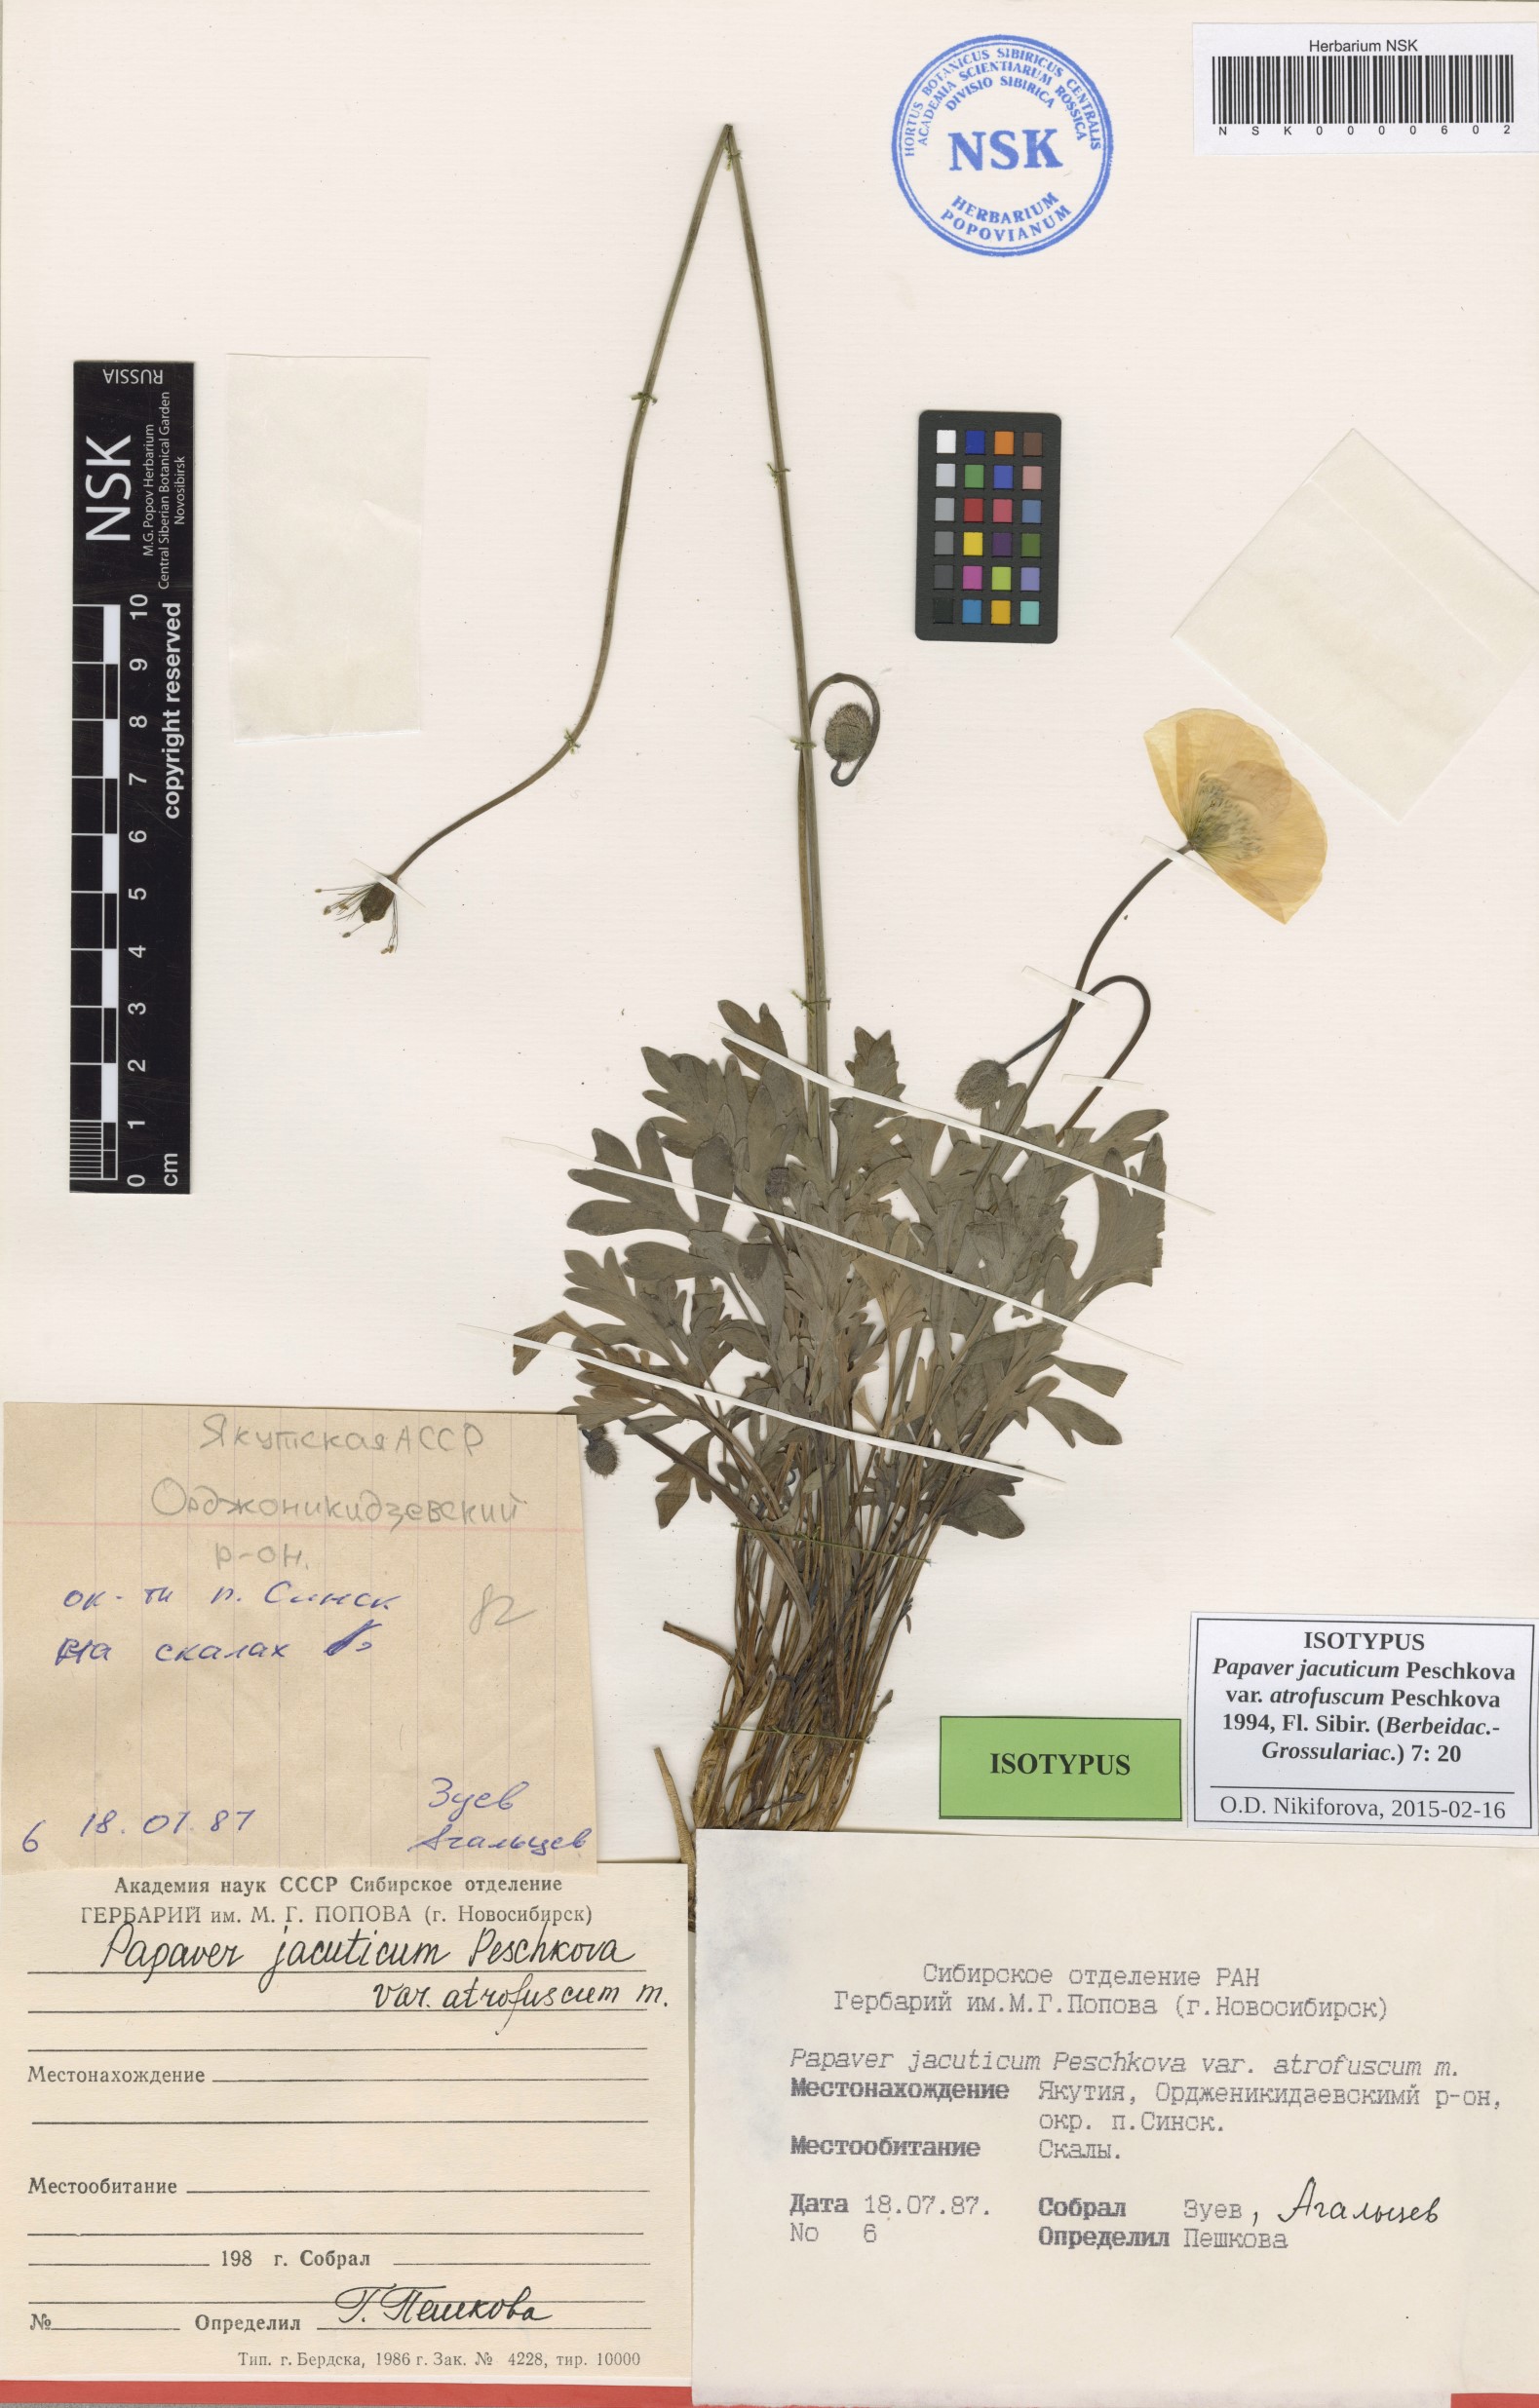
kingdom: Plantae
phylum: Tracheophyta
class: Magnoliopsida
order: Ranunculales
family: Papaveraceae
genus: Papaver
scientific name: Papaver jacuticum
